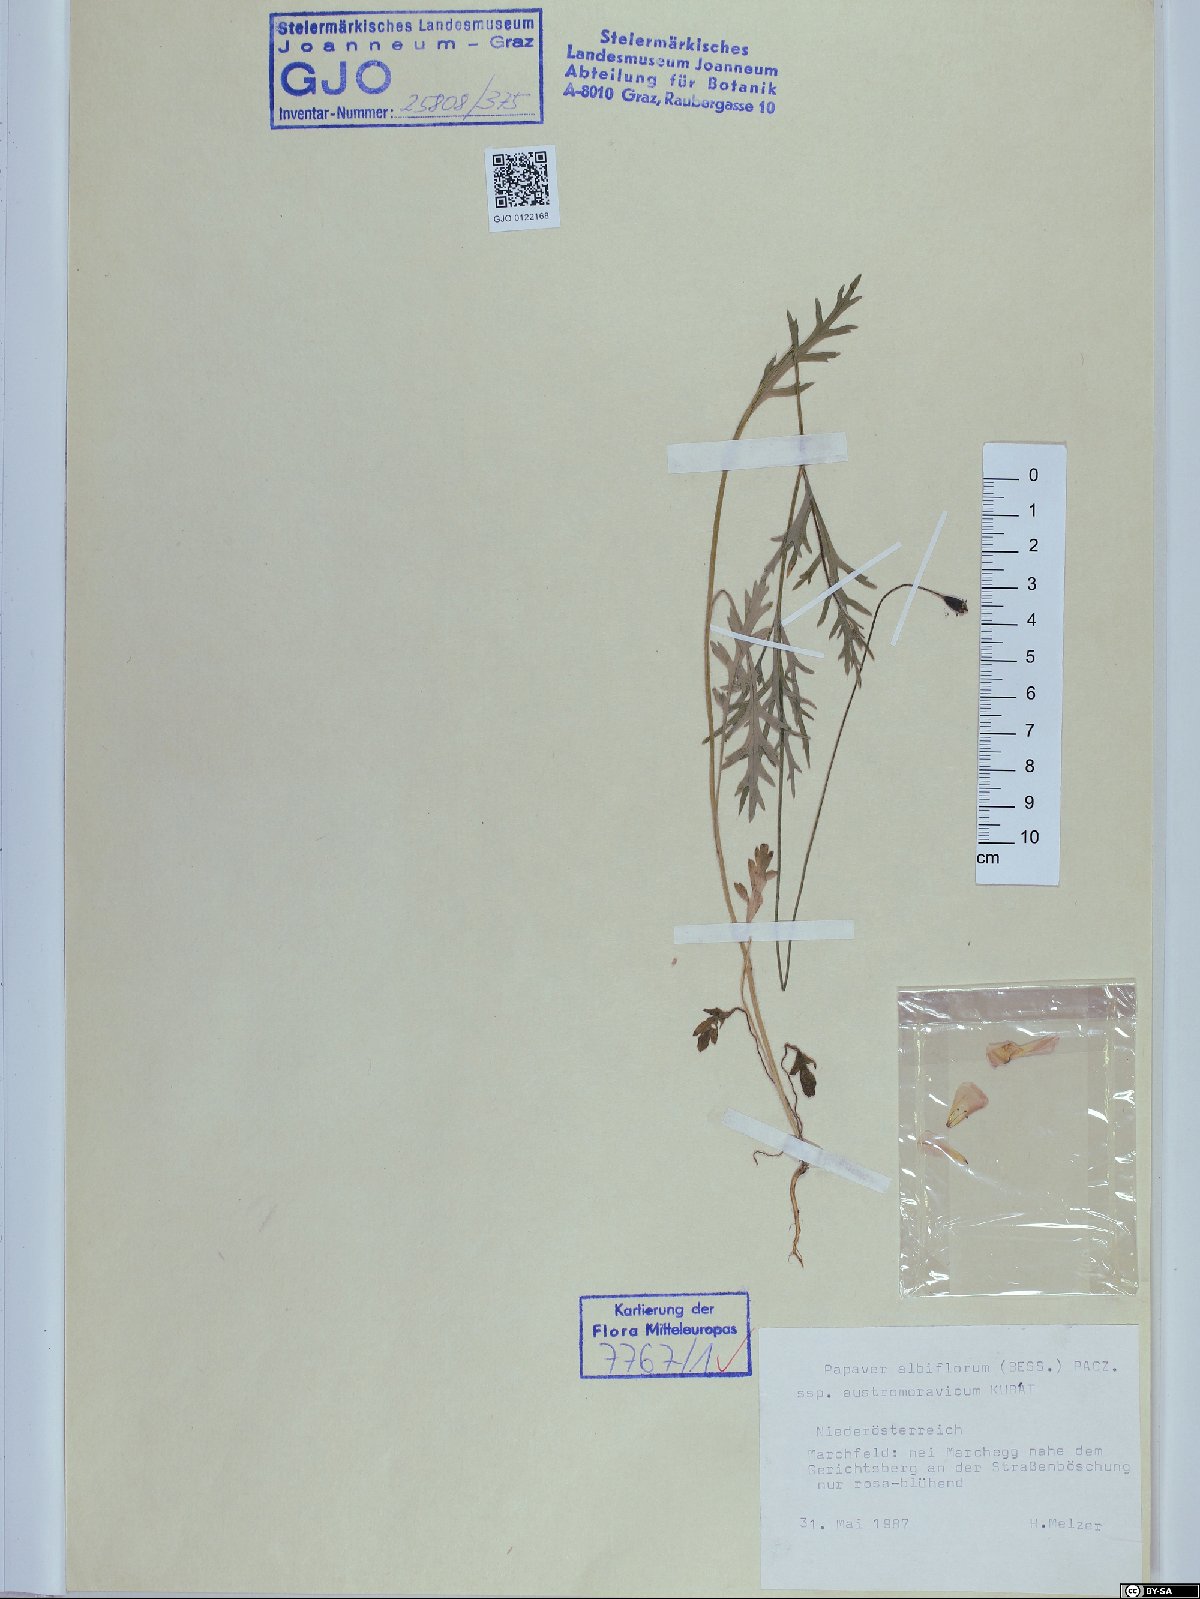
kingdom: Plantae
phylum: Tracheophyta
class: Magnoliopsida
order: Ranunculales
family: Papaveraceae
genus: Papaver
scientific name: Papaver dubium
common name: Long-headed poppy
